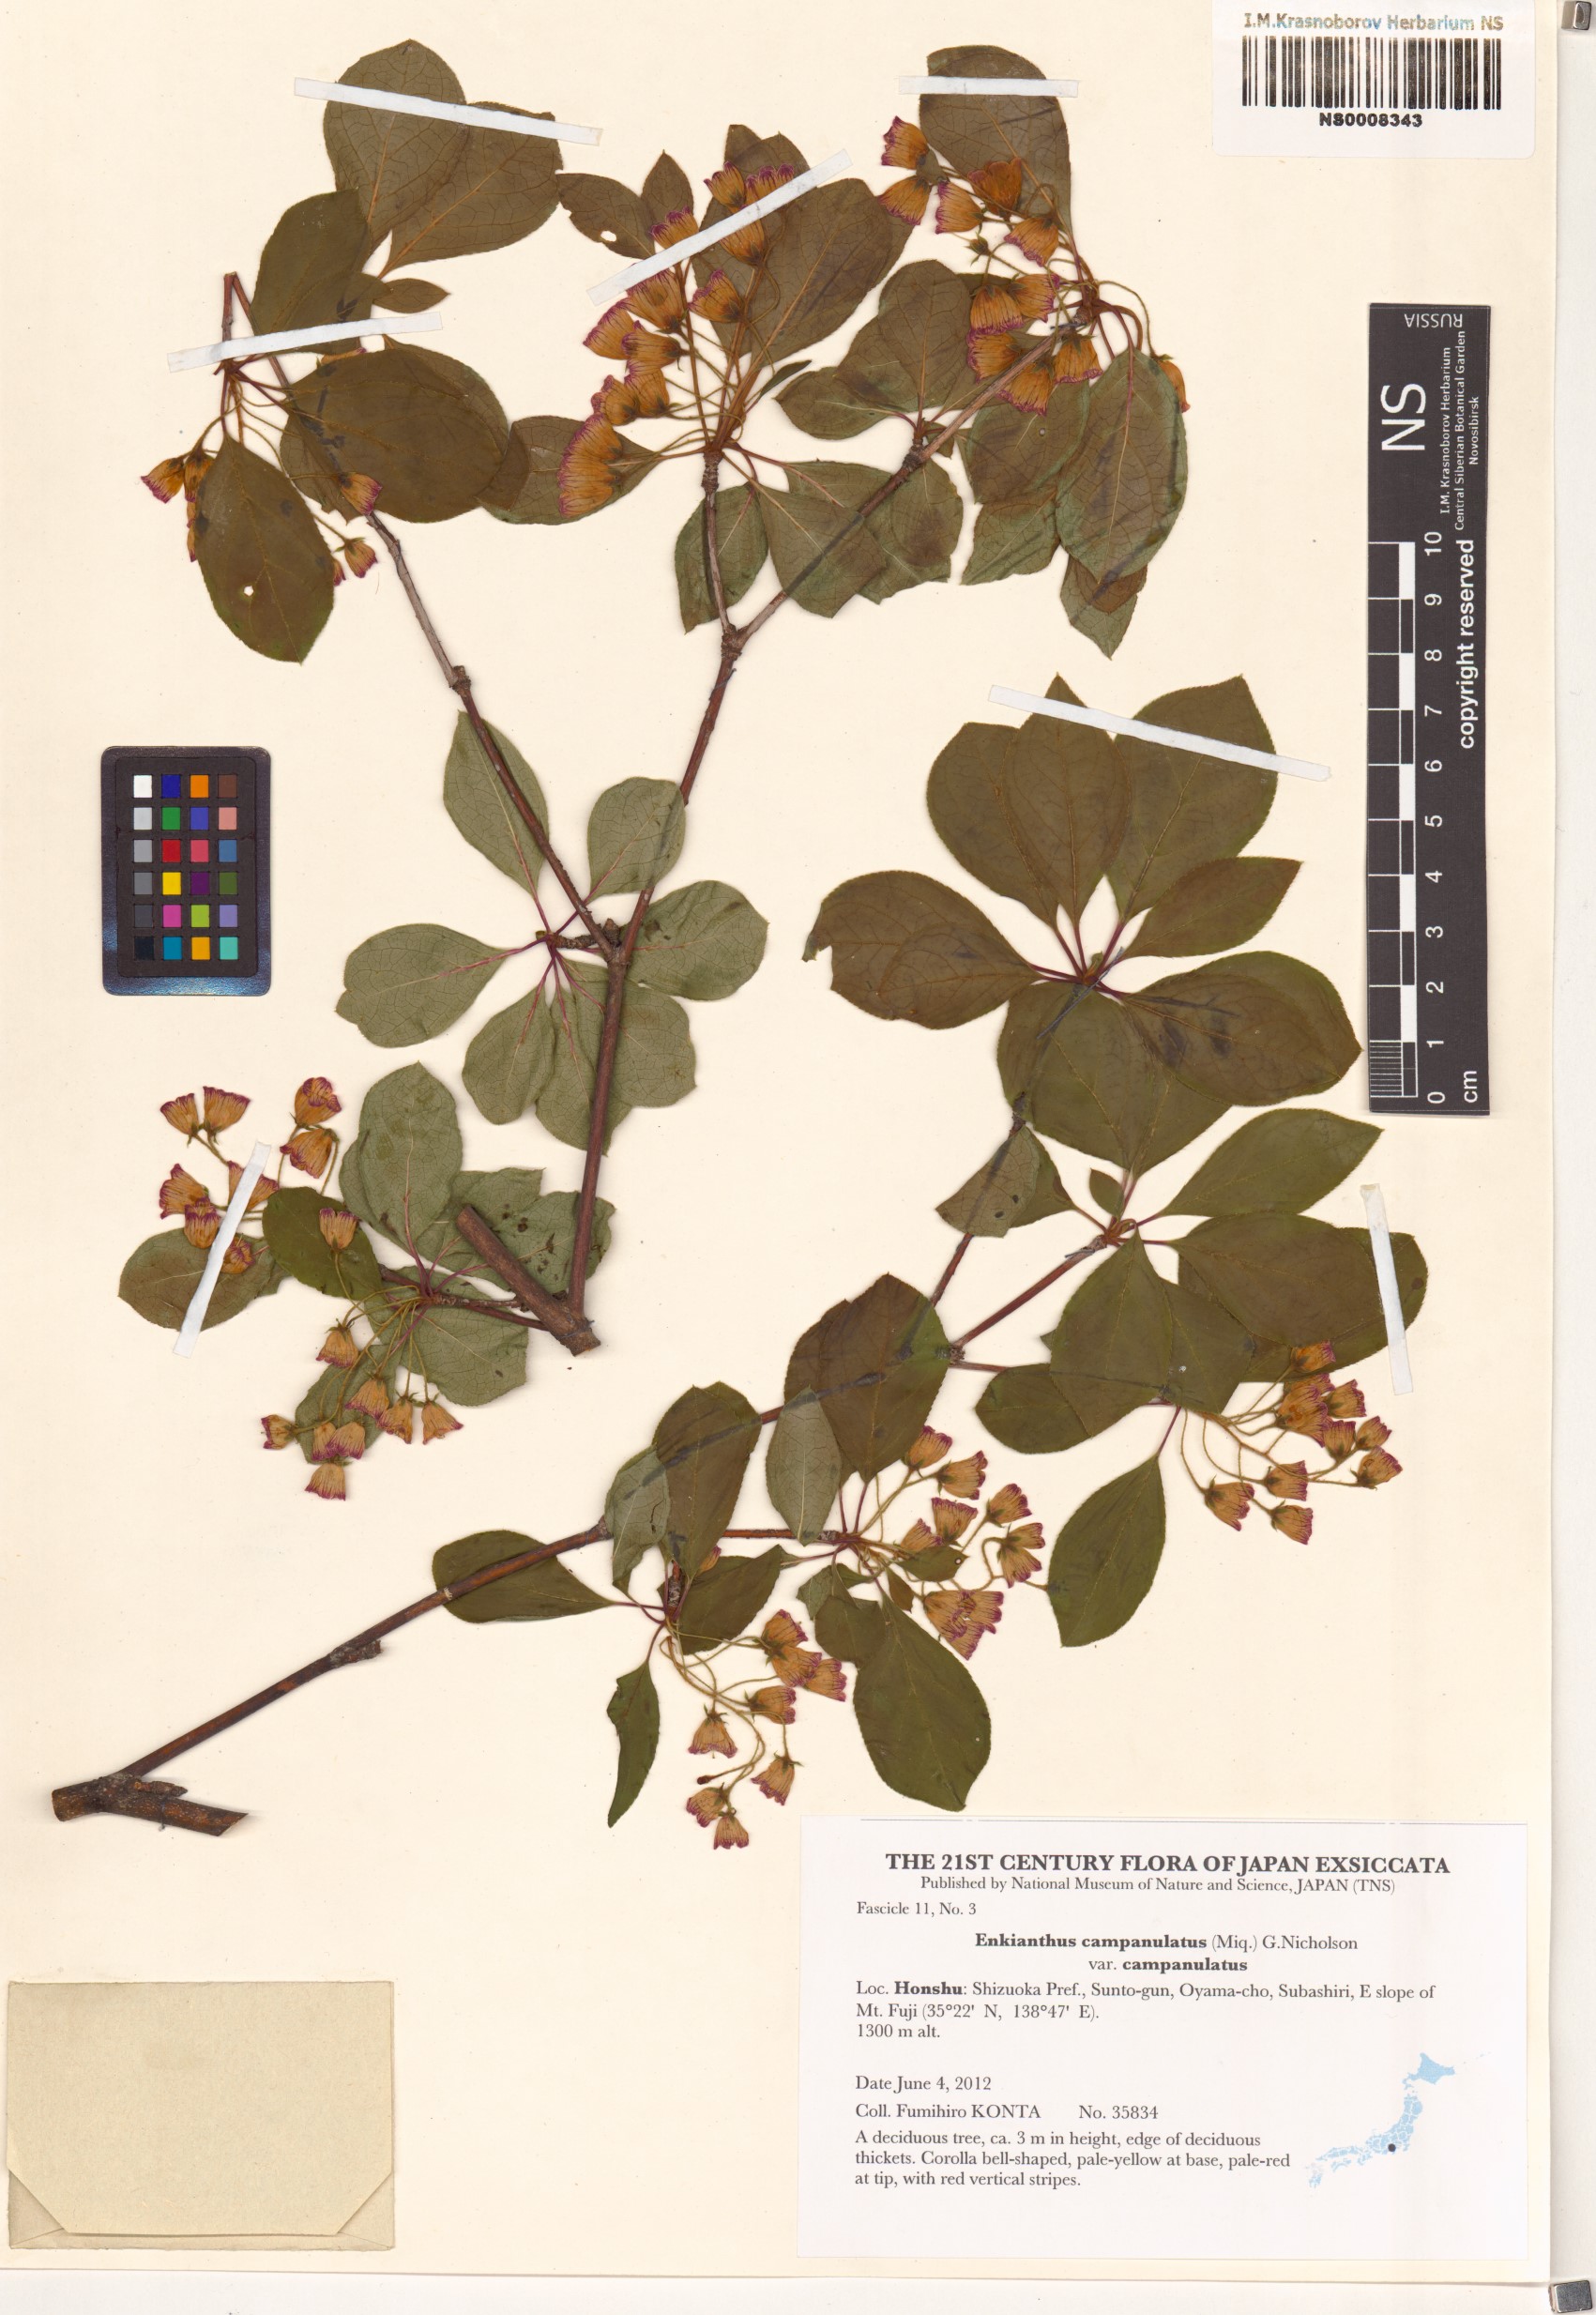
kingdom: Plantae
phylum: Tracheophyta
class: Magnoliopsida
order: Ericales
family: Ericaceae
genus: Enkianthus
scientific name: Enkianthus campanulatus
